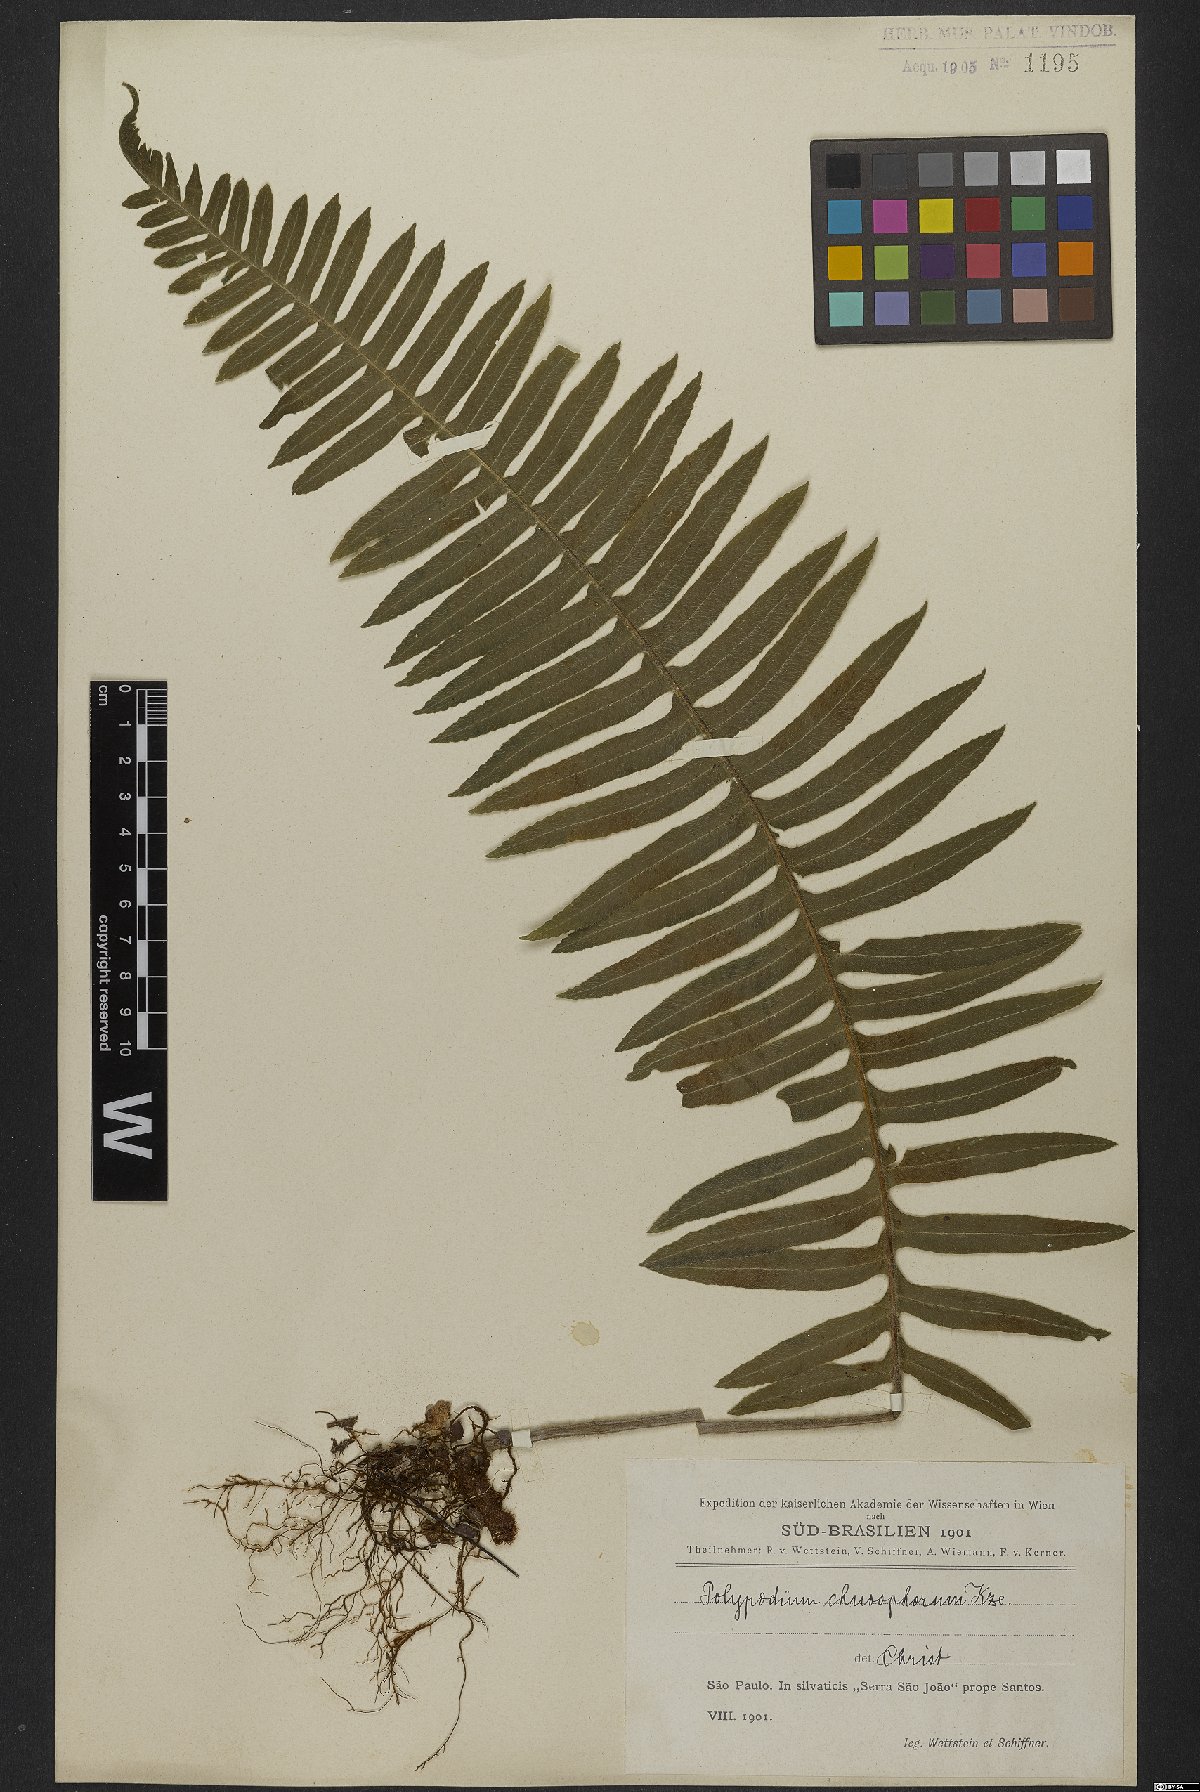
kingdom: Plantae
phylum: Tracheophyta
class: Polypodiopsida
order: Polypodiales
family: Polypodiaceae
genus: Pecluma
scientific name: Pecluma chnoophora
